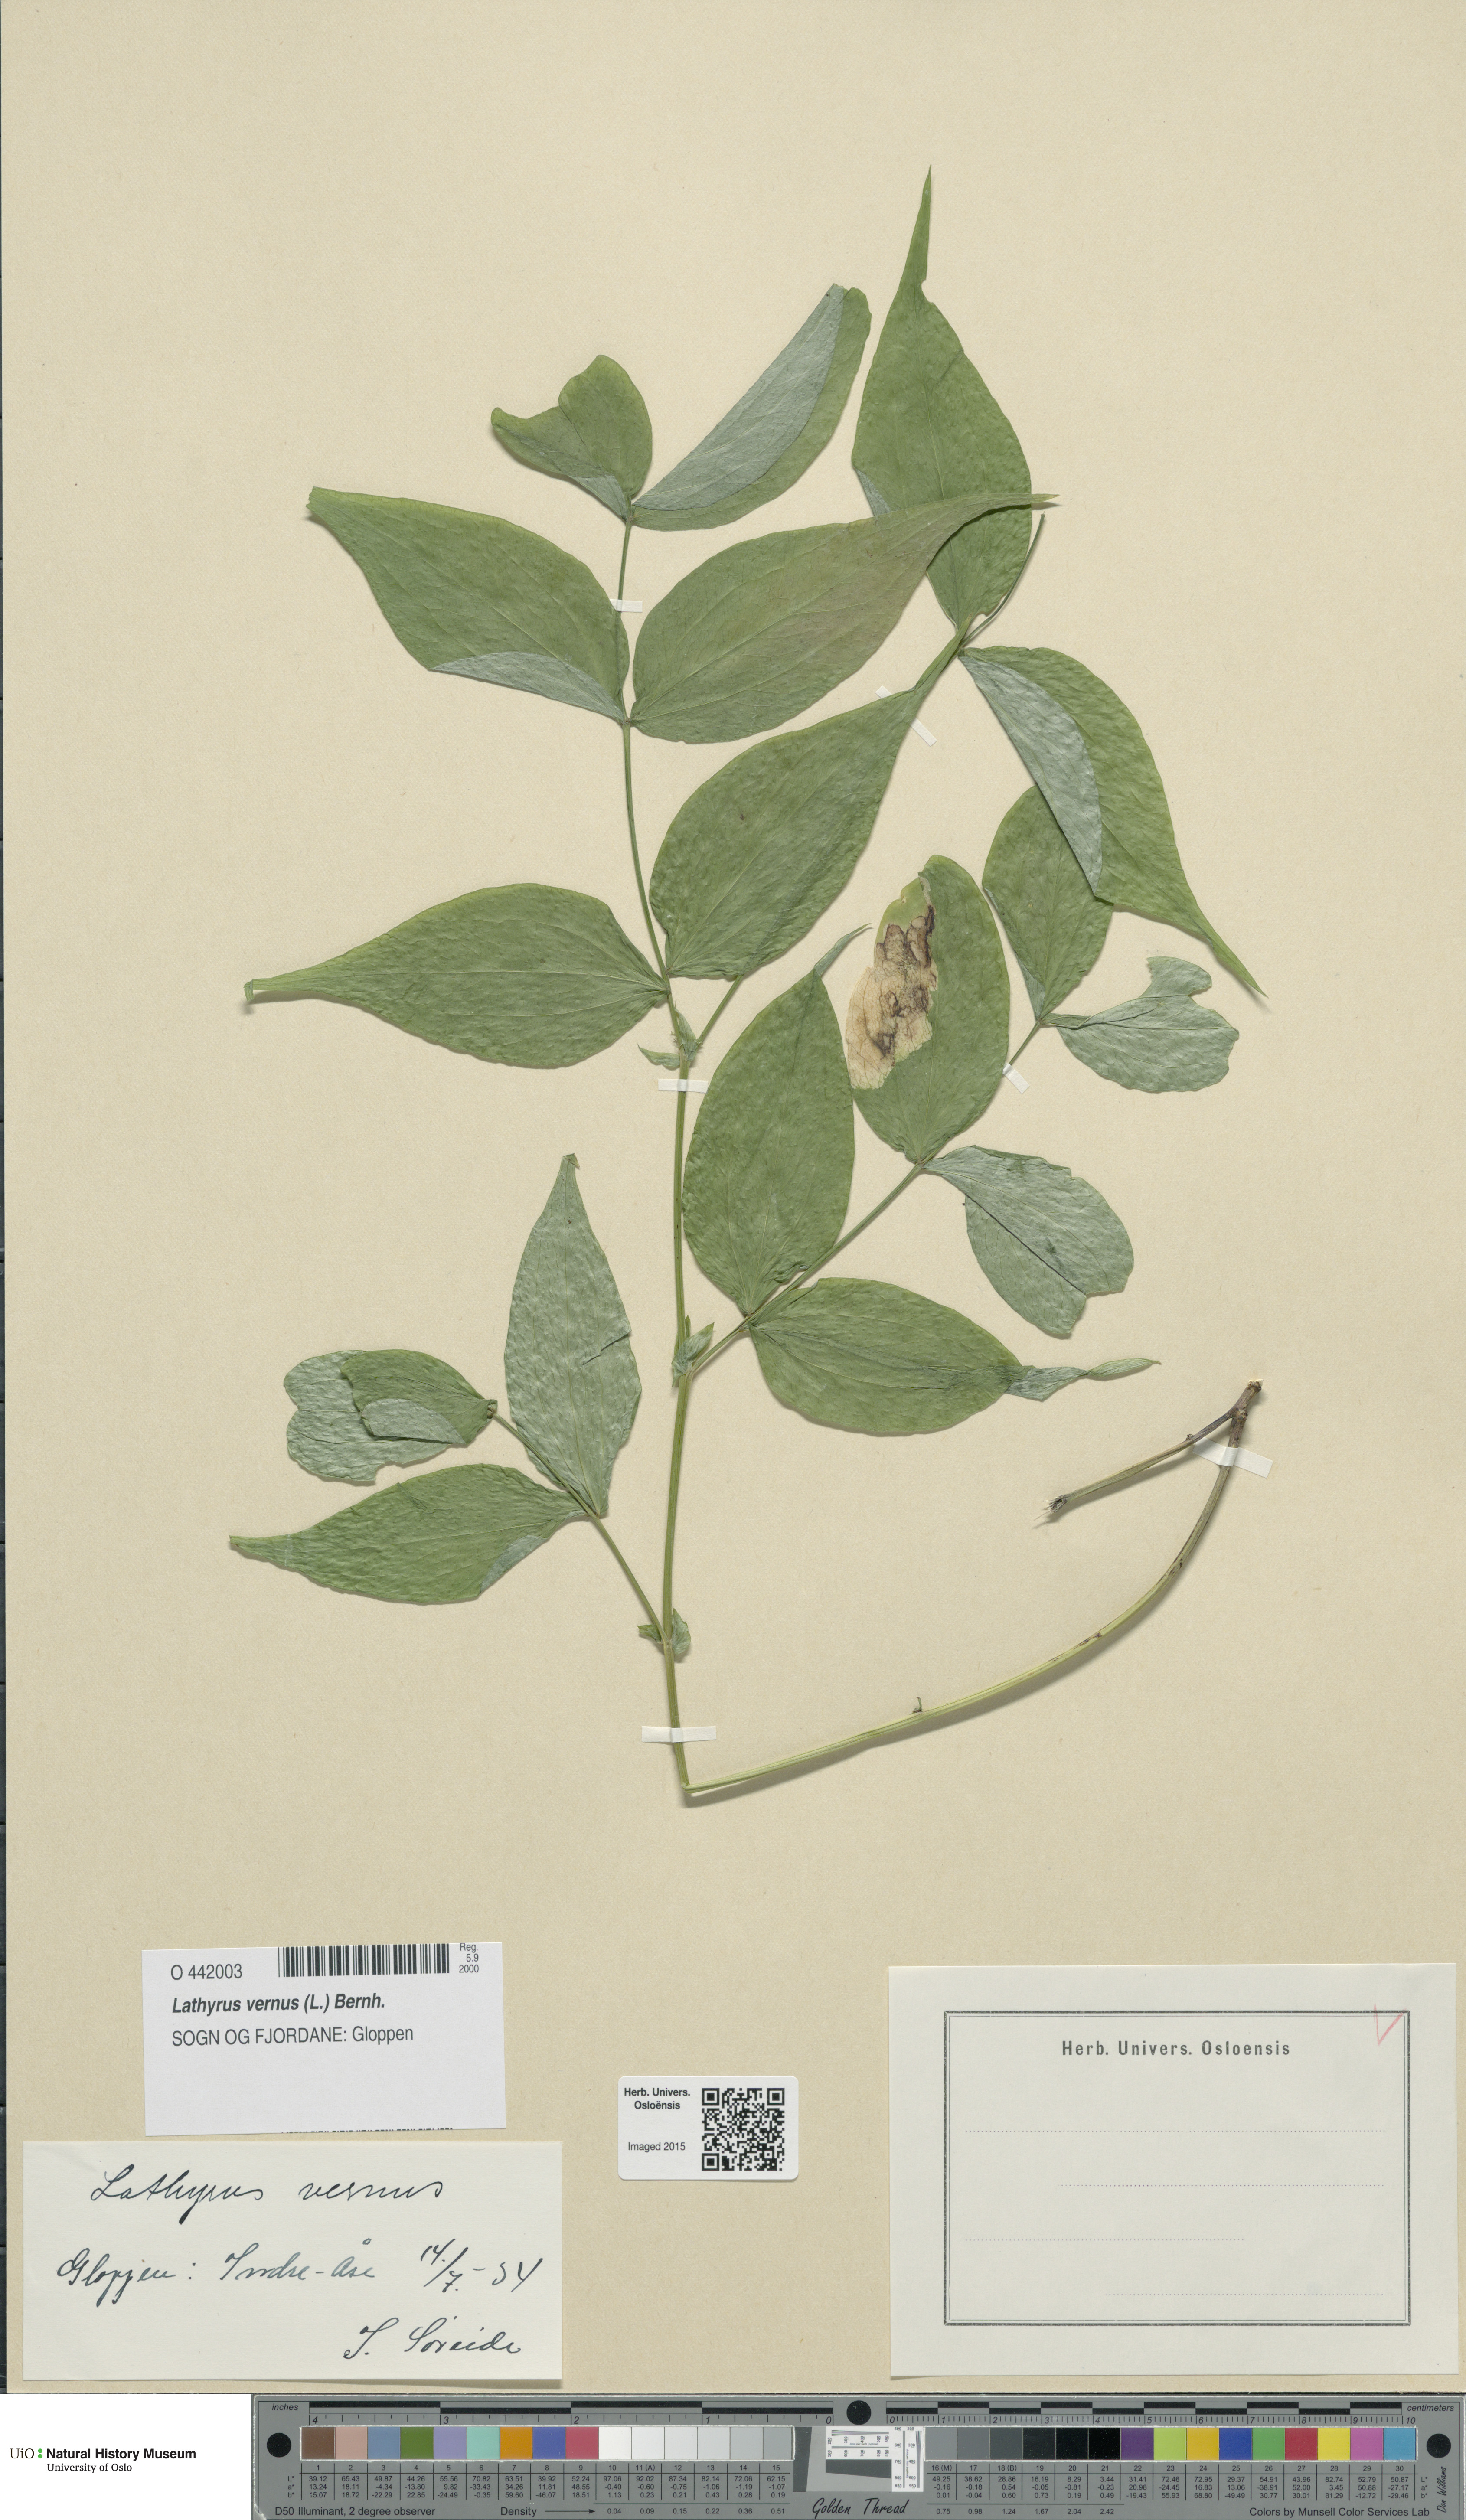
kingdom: Plantae
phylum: Tracheophyta
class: Magnoliopsida
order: Fabales
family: Fabaceae
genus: Lathyrus
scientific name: Lathyrus vernus
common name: Spring pea
